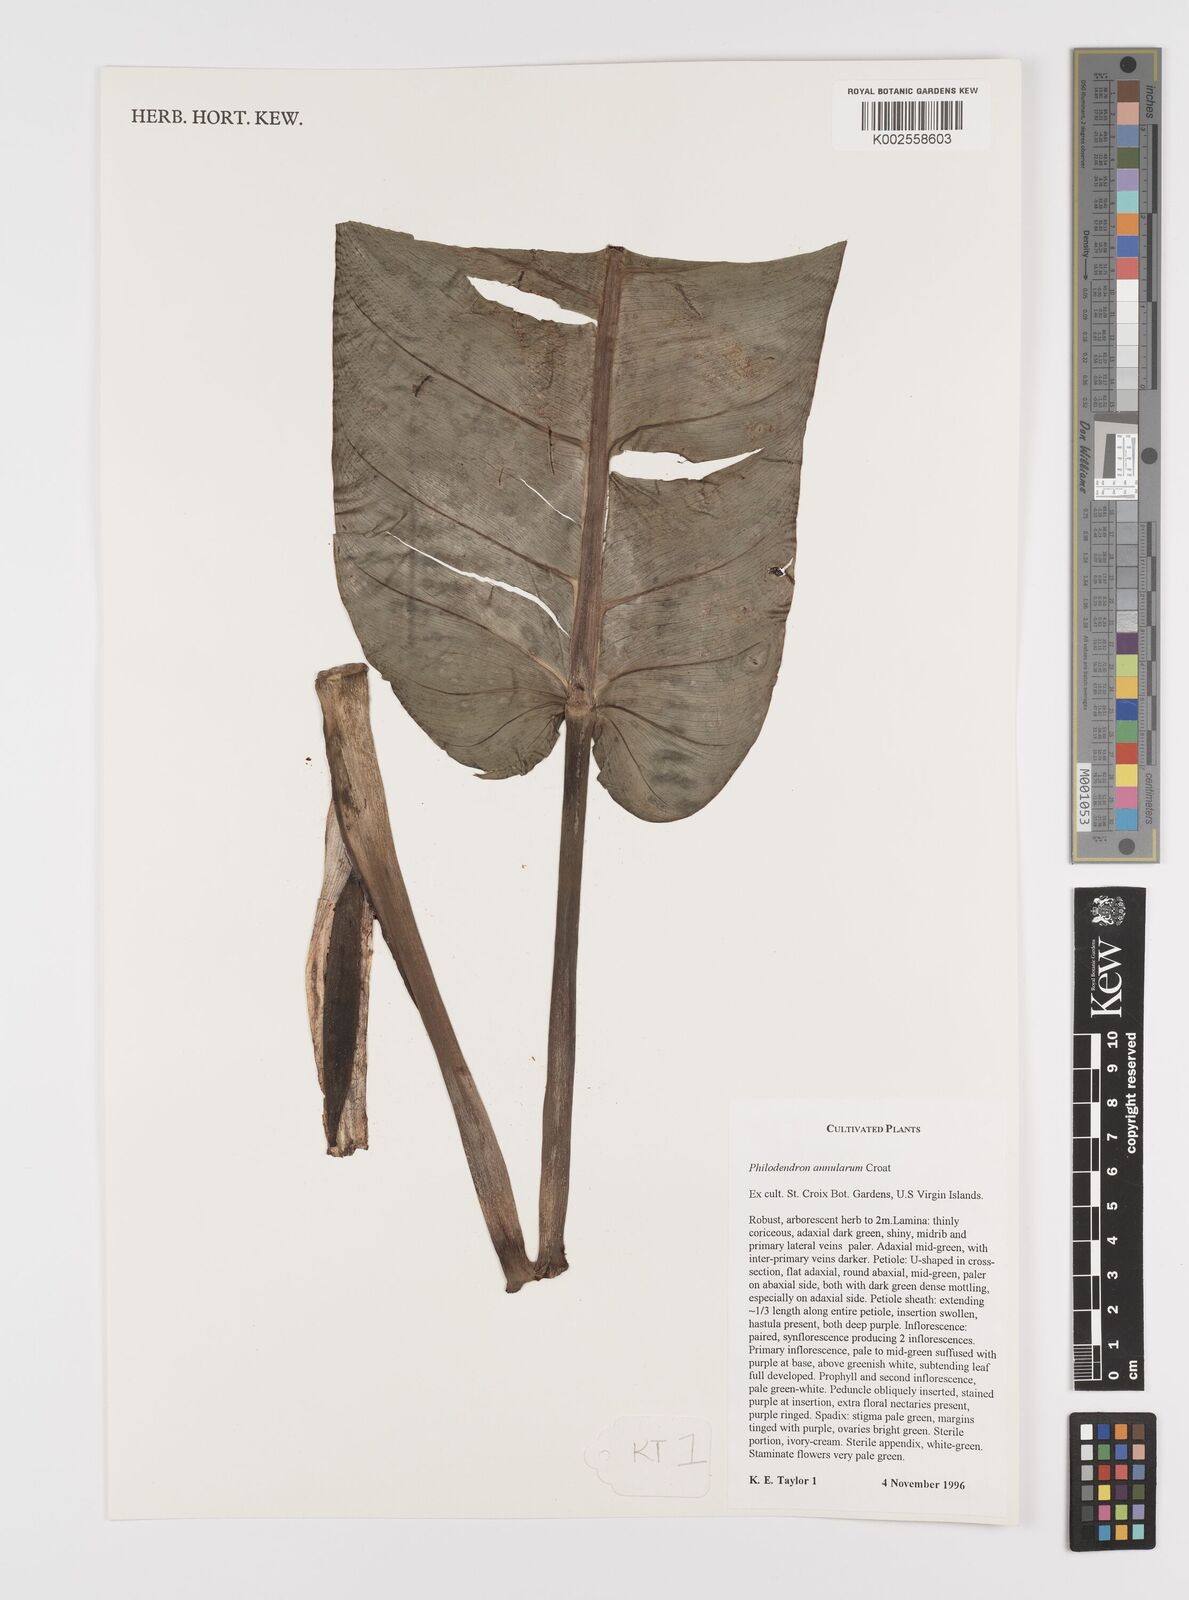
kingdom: Plantae
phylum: Tracheophyta
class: Liliopsida
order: Alismatales
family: Araceae
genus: Philodendron
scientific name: Philodendron annulatum
